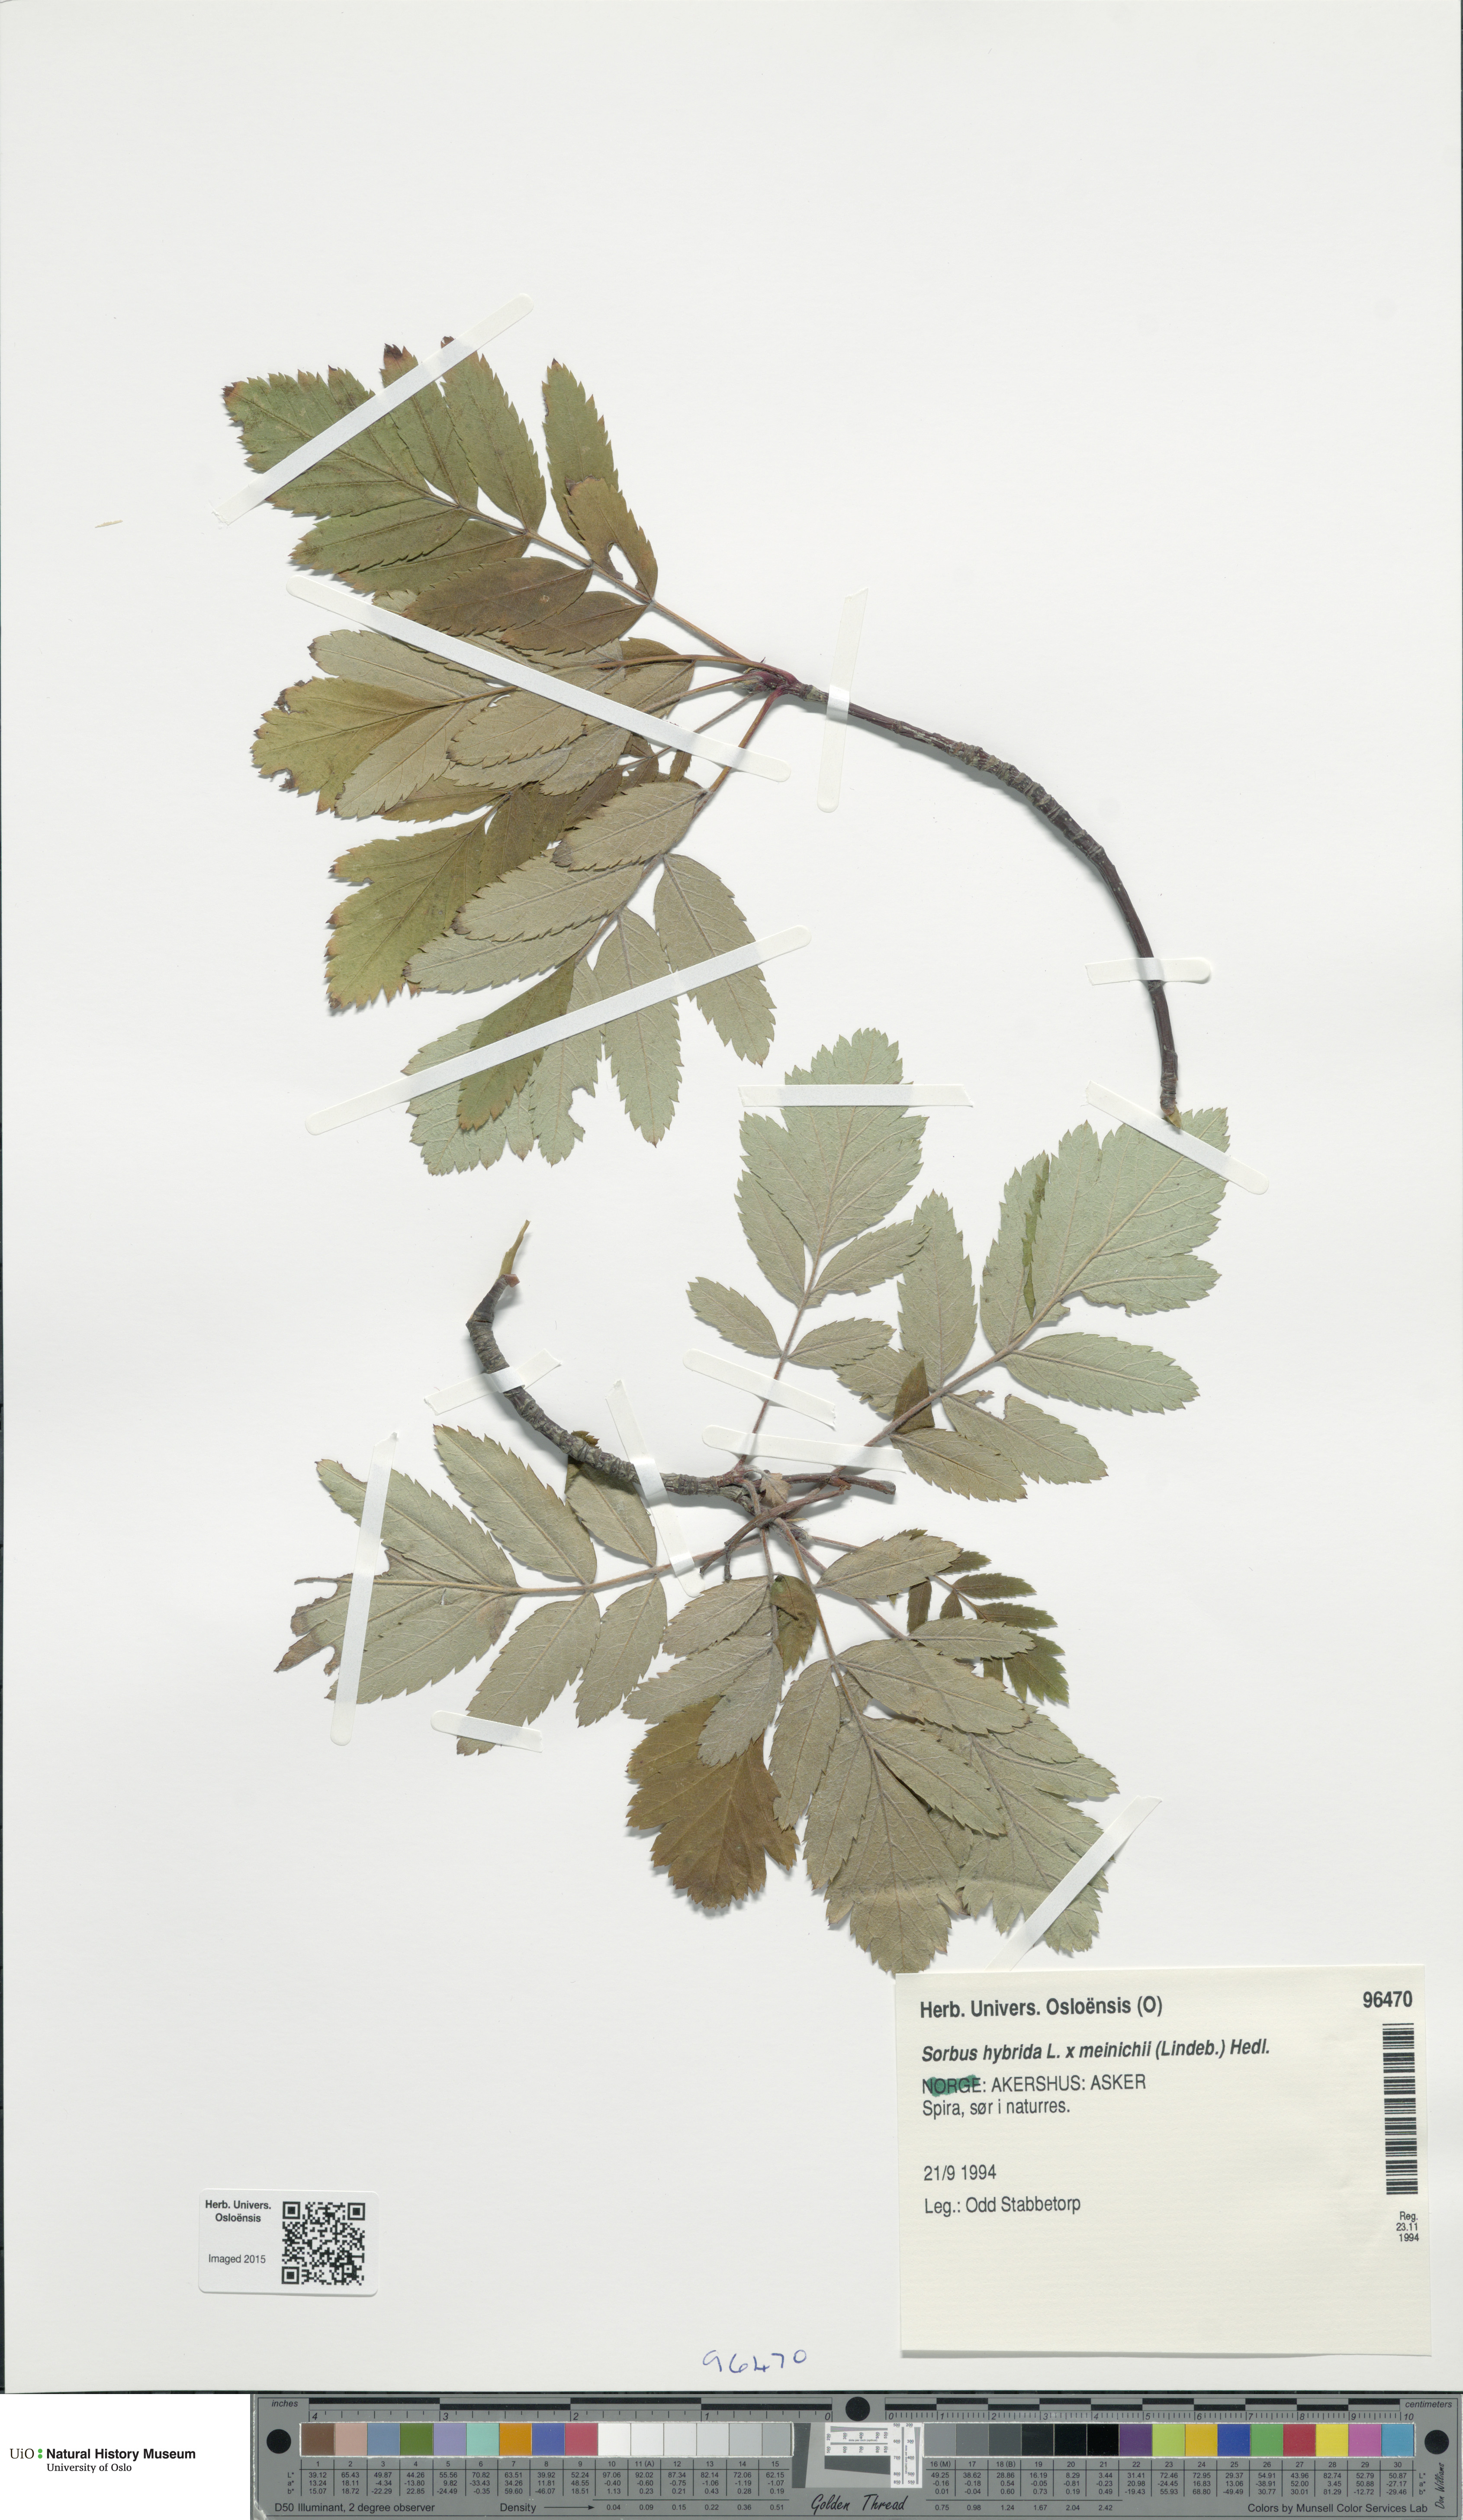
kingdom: Plantae
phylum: Tracheophyta
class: Magnoliopsida
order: Rosales
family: Rosaceae
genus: Hedlundia
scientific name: Hedlundia
